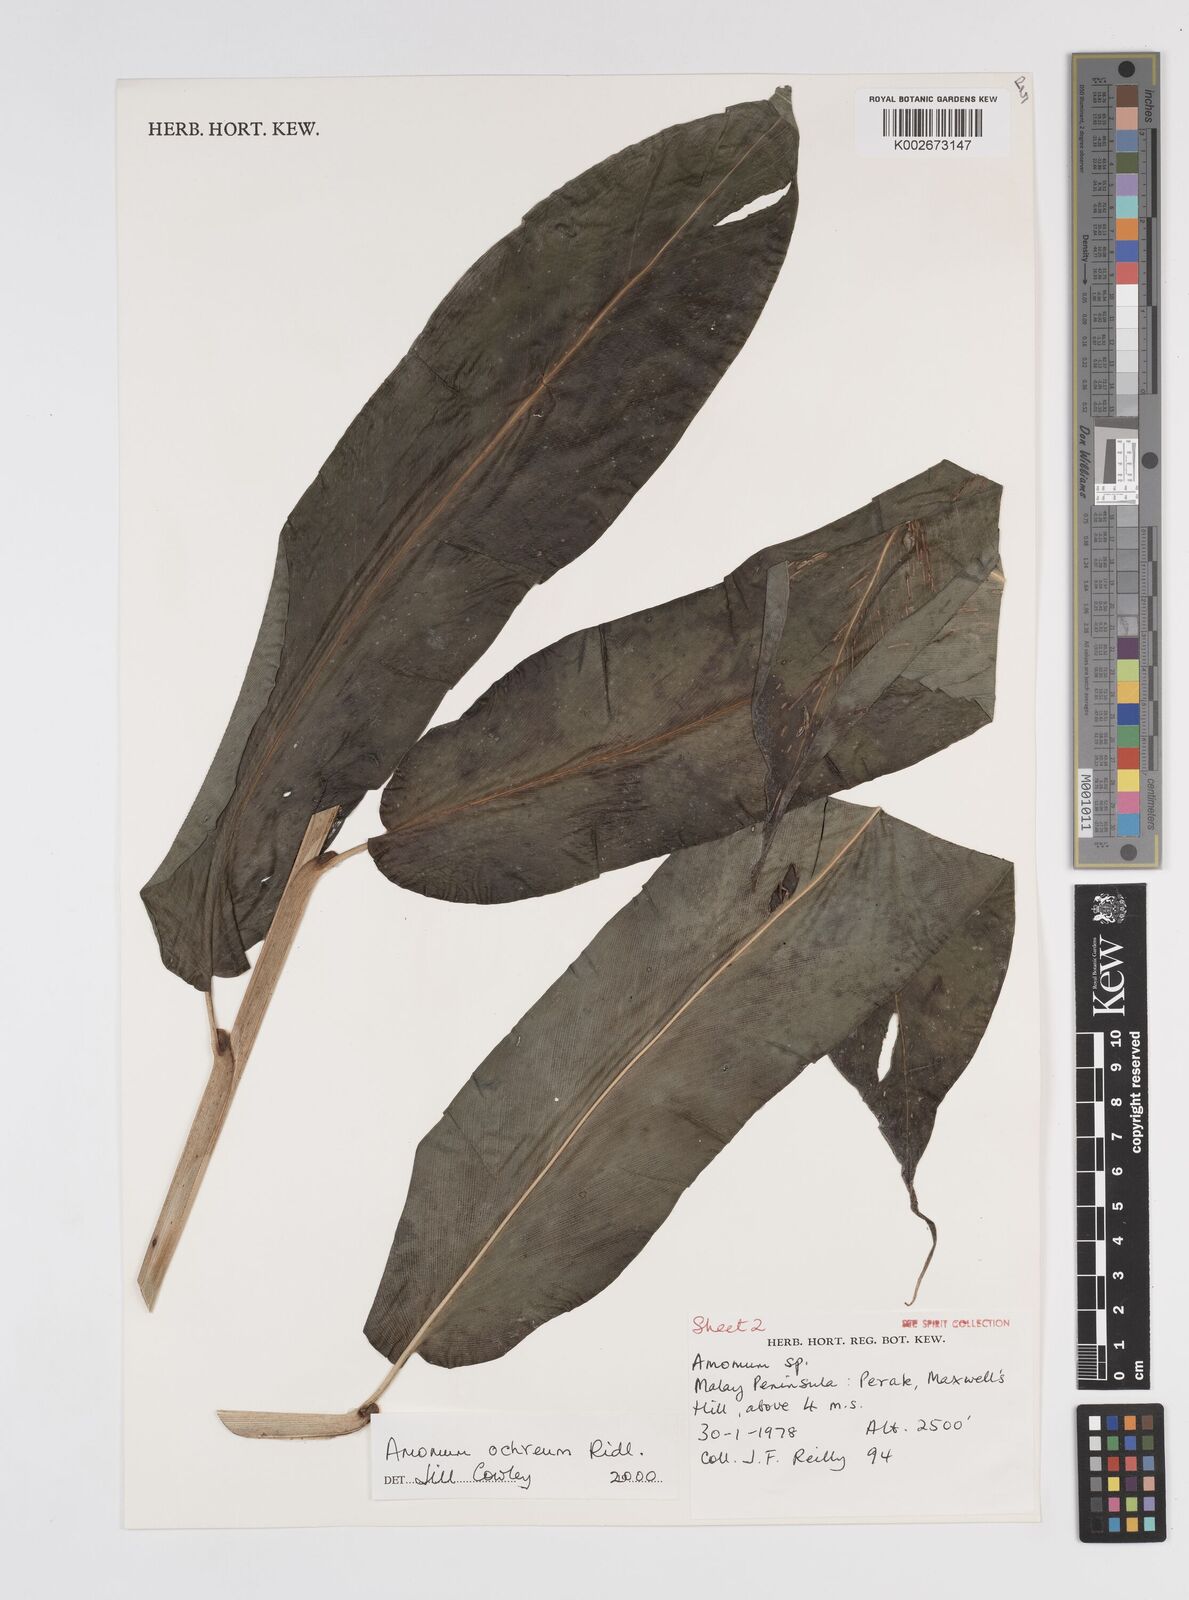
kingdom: Plantae
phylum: Tracheophyta
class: Liliopsida
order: Zingiberales
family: Zingiberaceae
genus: Meistera
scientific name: Meistera ochrea
